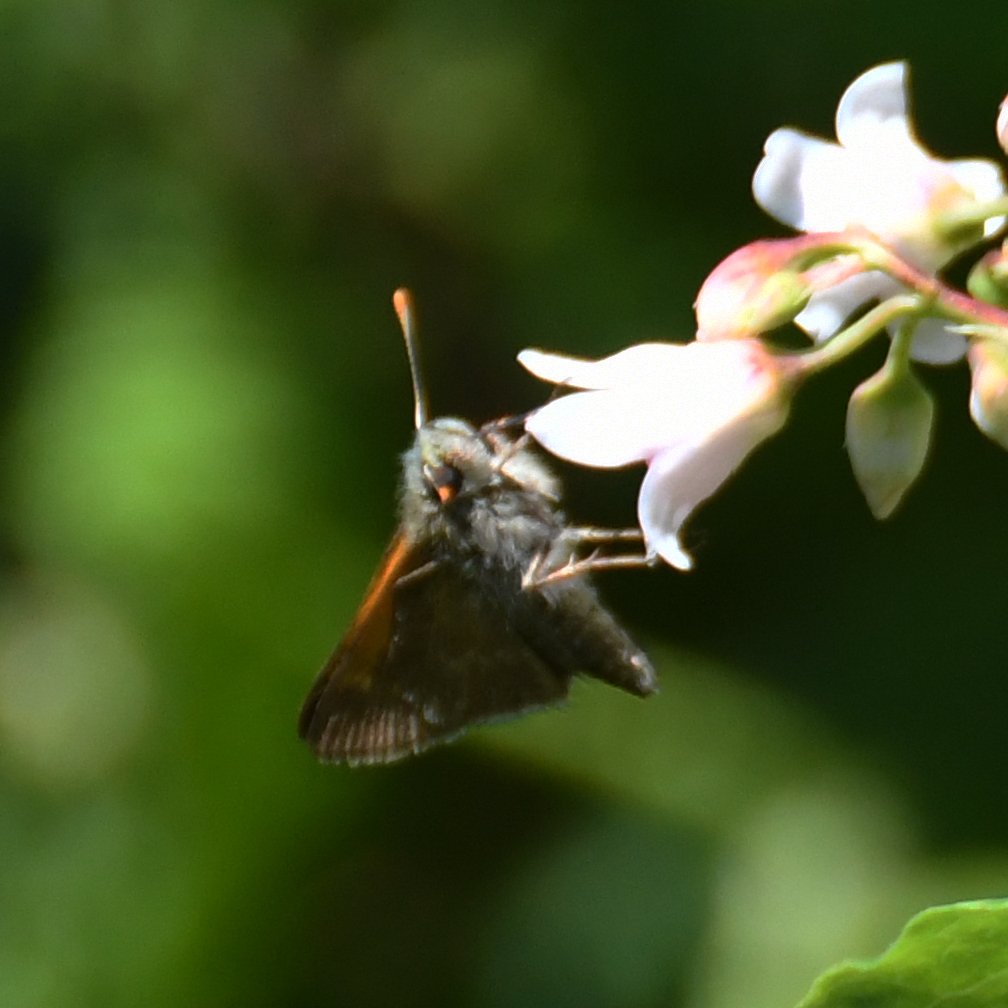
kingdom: Animalia
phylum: Arthropoda
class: Insecta
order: Lepidoptera
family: Hesperiidae
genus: Polites
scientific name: Polites themistocles
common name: Tawny-edged Skipper
